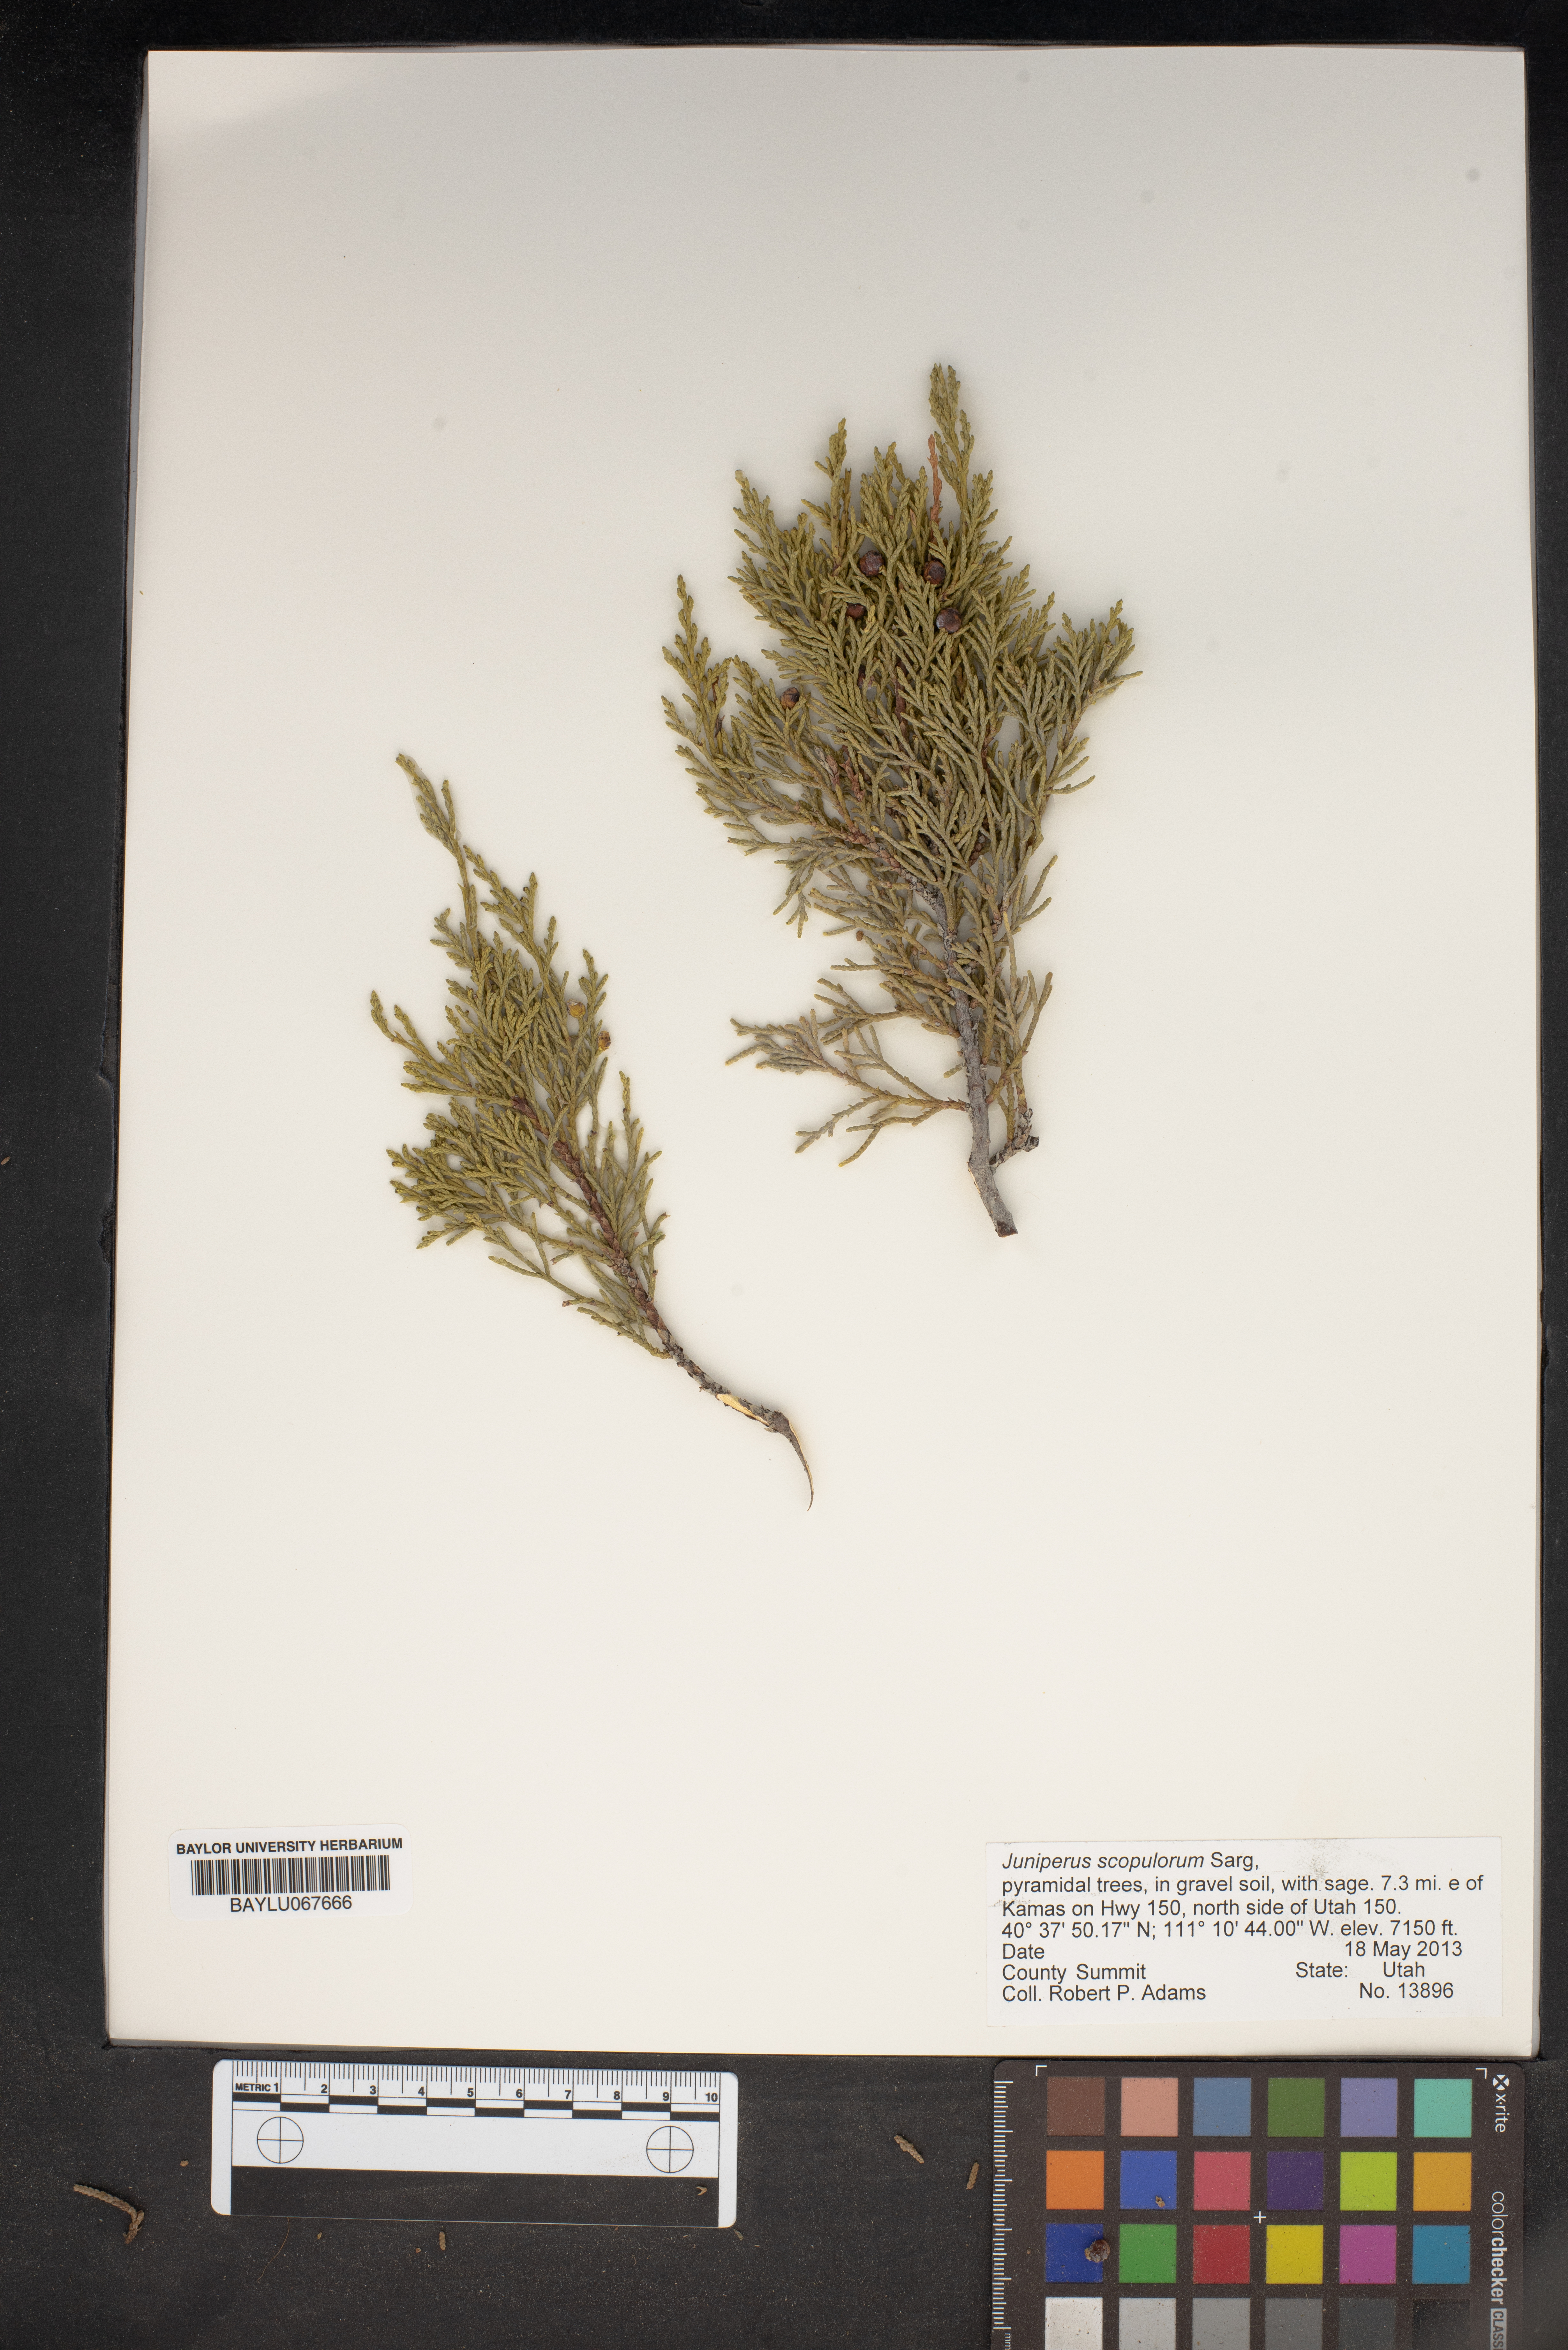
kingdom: Plantae
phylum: Tracheophyta
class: Pinopsida
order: Pinales
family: Cupressaceae
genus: Juniperus
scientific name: Juniperus scopulorum
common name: Rocky mountain juniper
